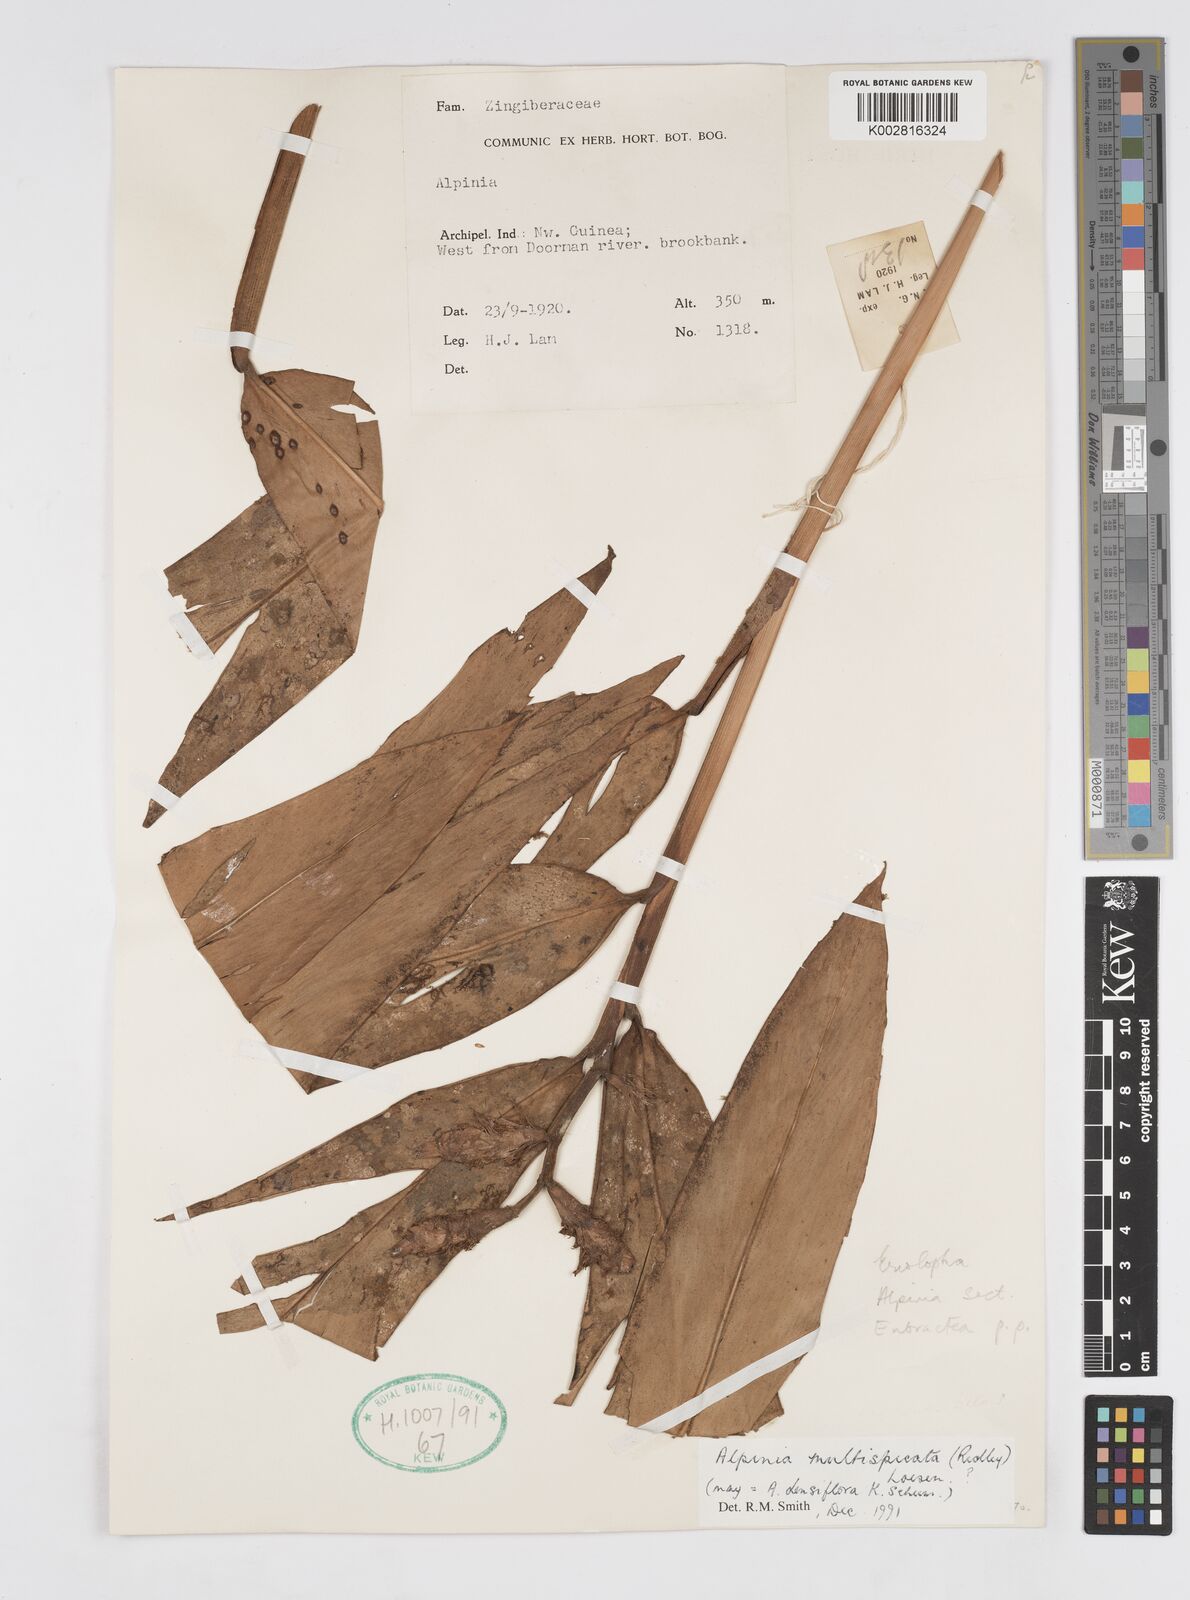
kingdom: Plantae
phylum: Tracheophyta
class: Liliopsida
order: Zingiberales
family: Zingiberaceae
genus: Alpinia
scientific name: Alpinia multispica
